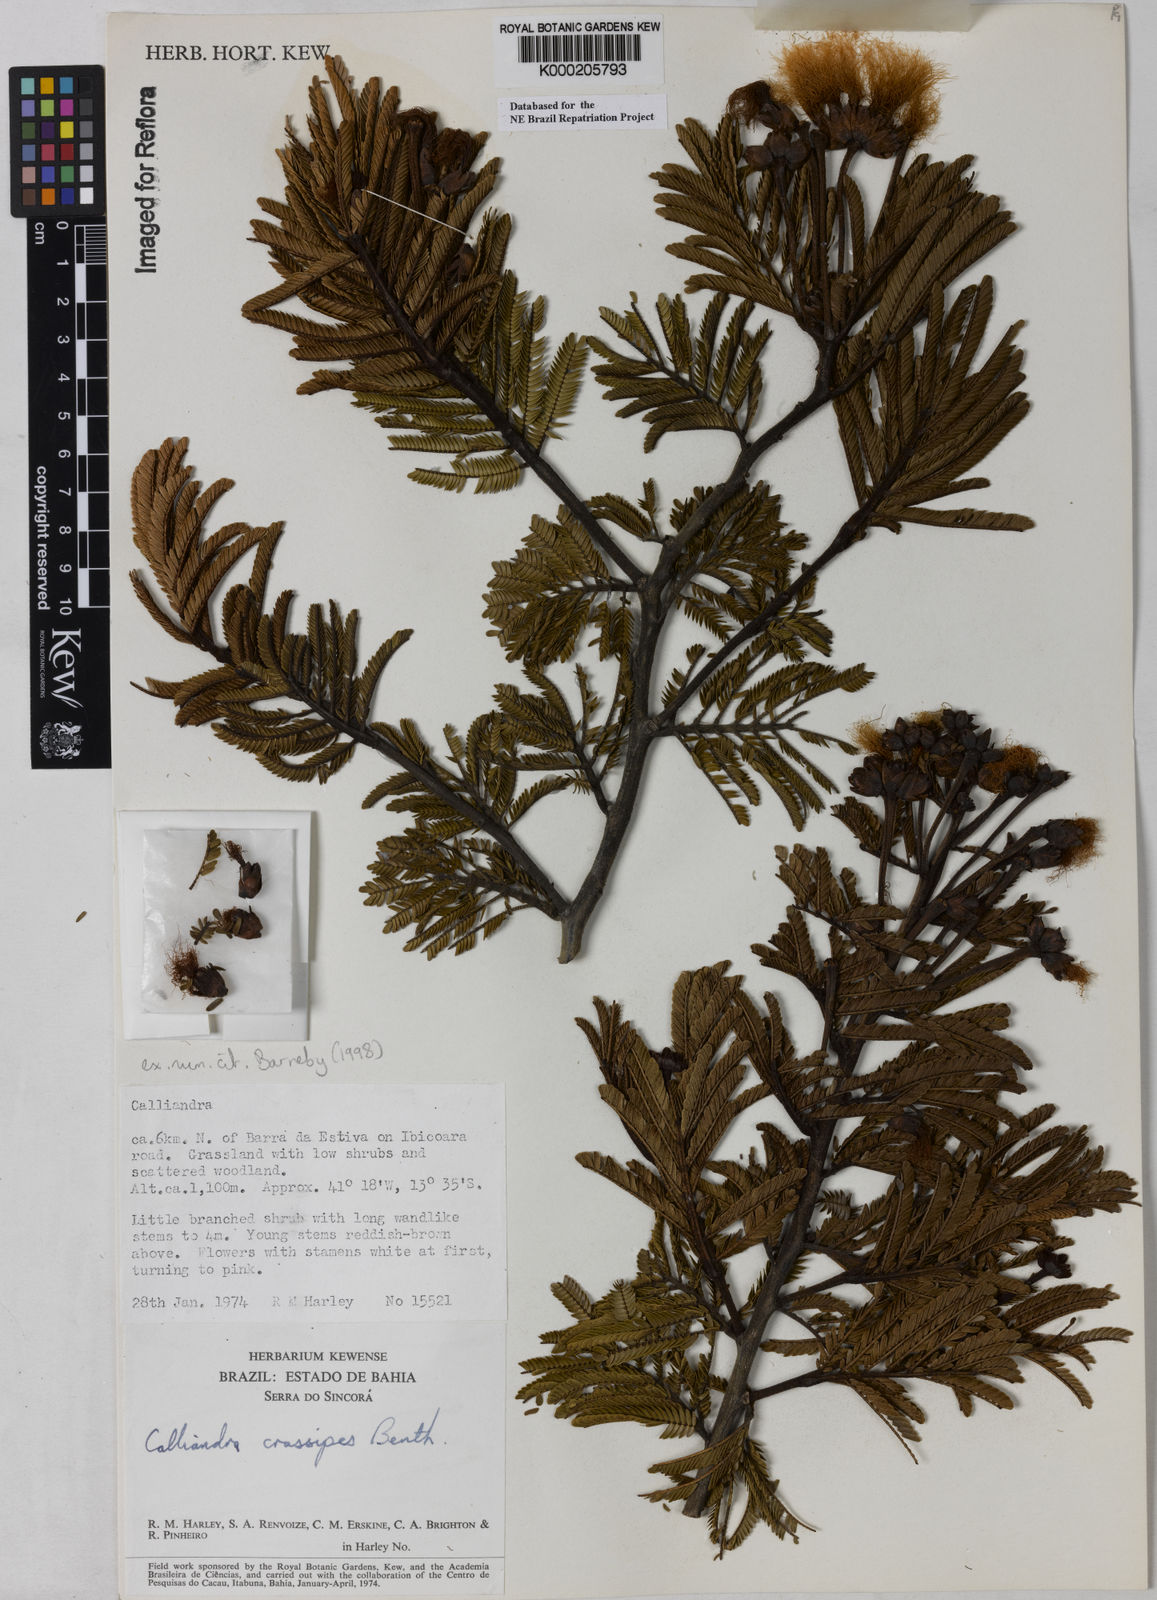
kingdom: Plantae
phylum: Tracheophyta
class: Magnoliopsida
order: Fabales
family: Fabaceae
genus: Calliandra
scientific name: Calliandra crassipes
